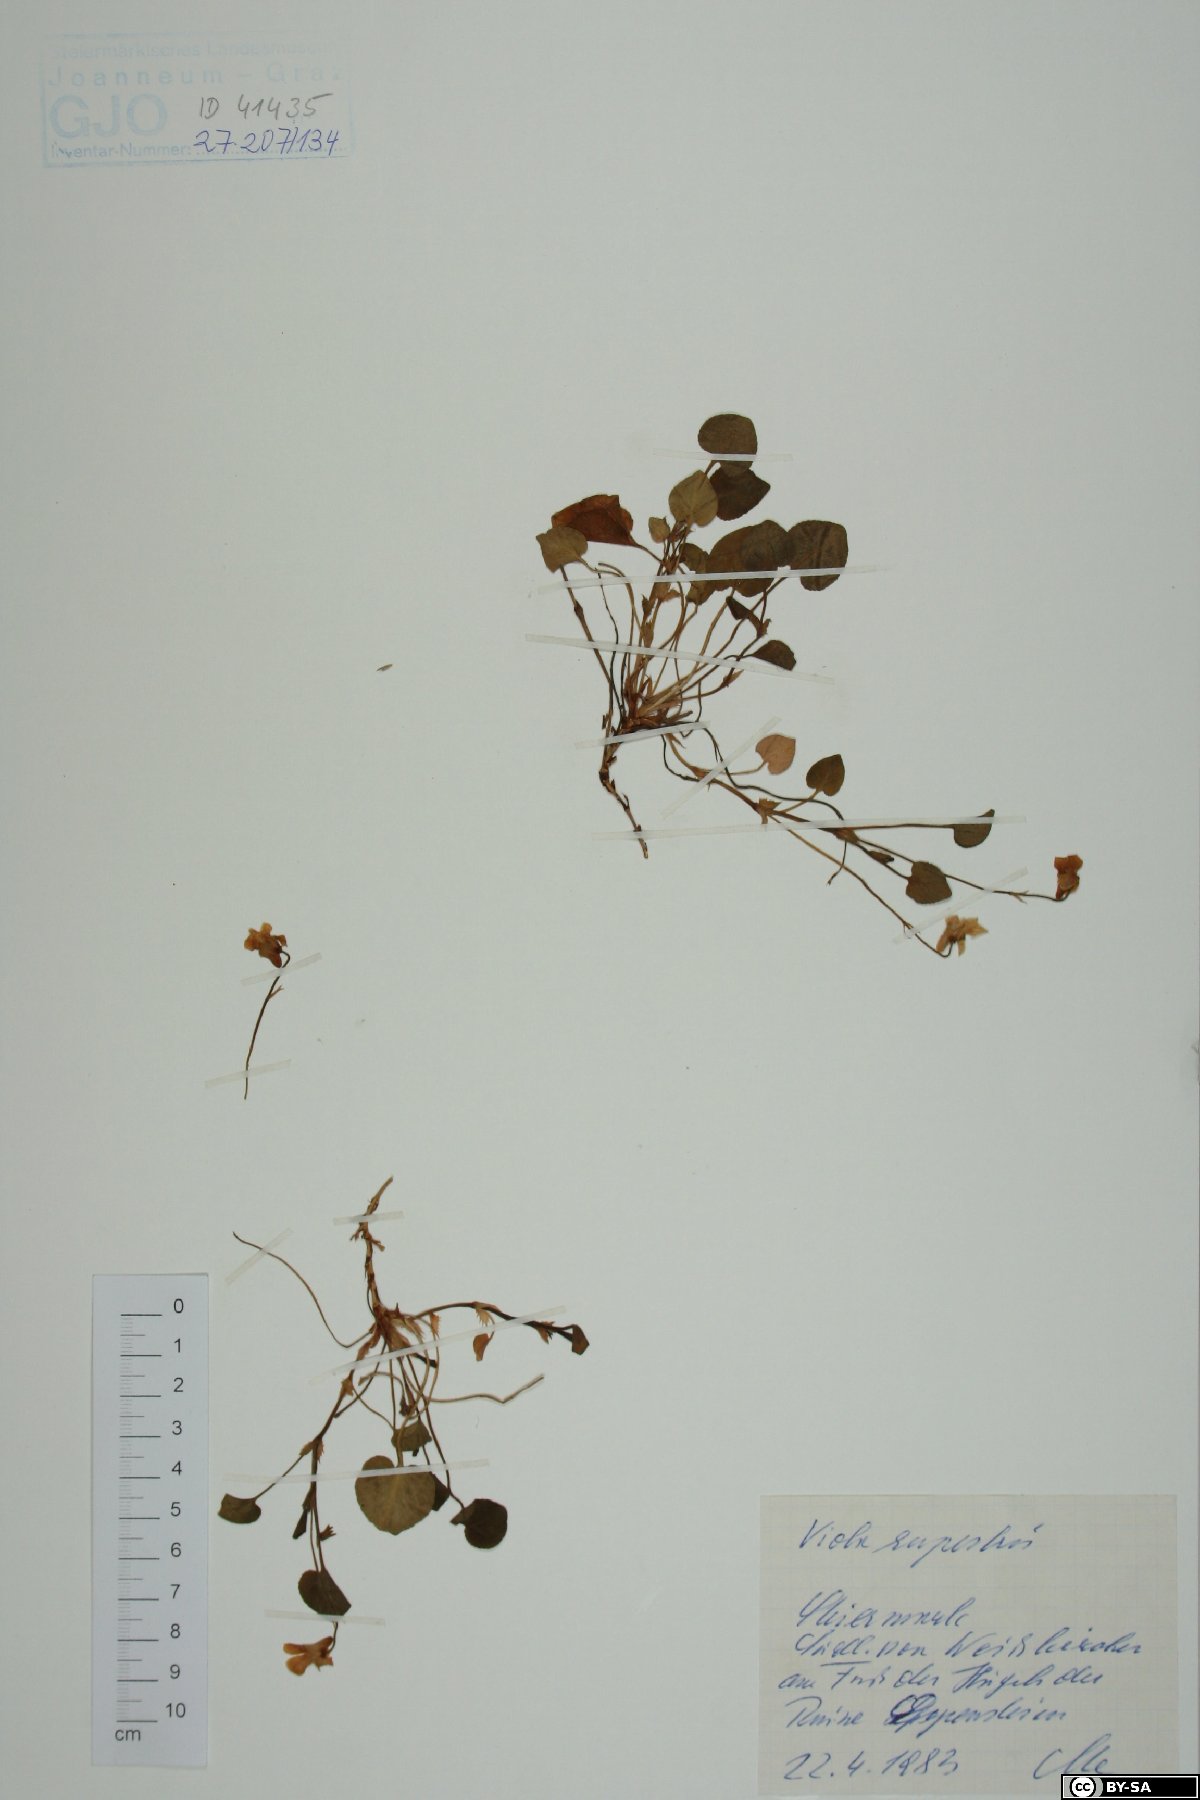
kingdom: Plantae
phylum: Tracheophyta
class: Magnoliopsida
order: Malpighiales
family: Violaceae
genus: Viola
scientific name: Viola rupestris
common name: Teesdale violet
